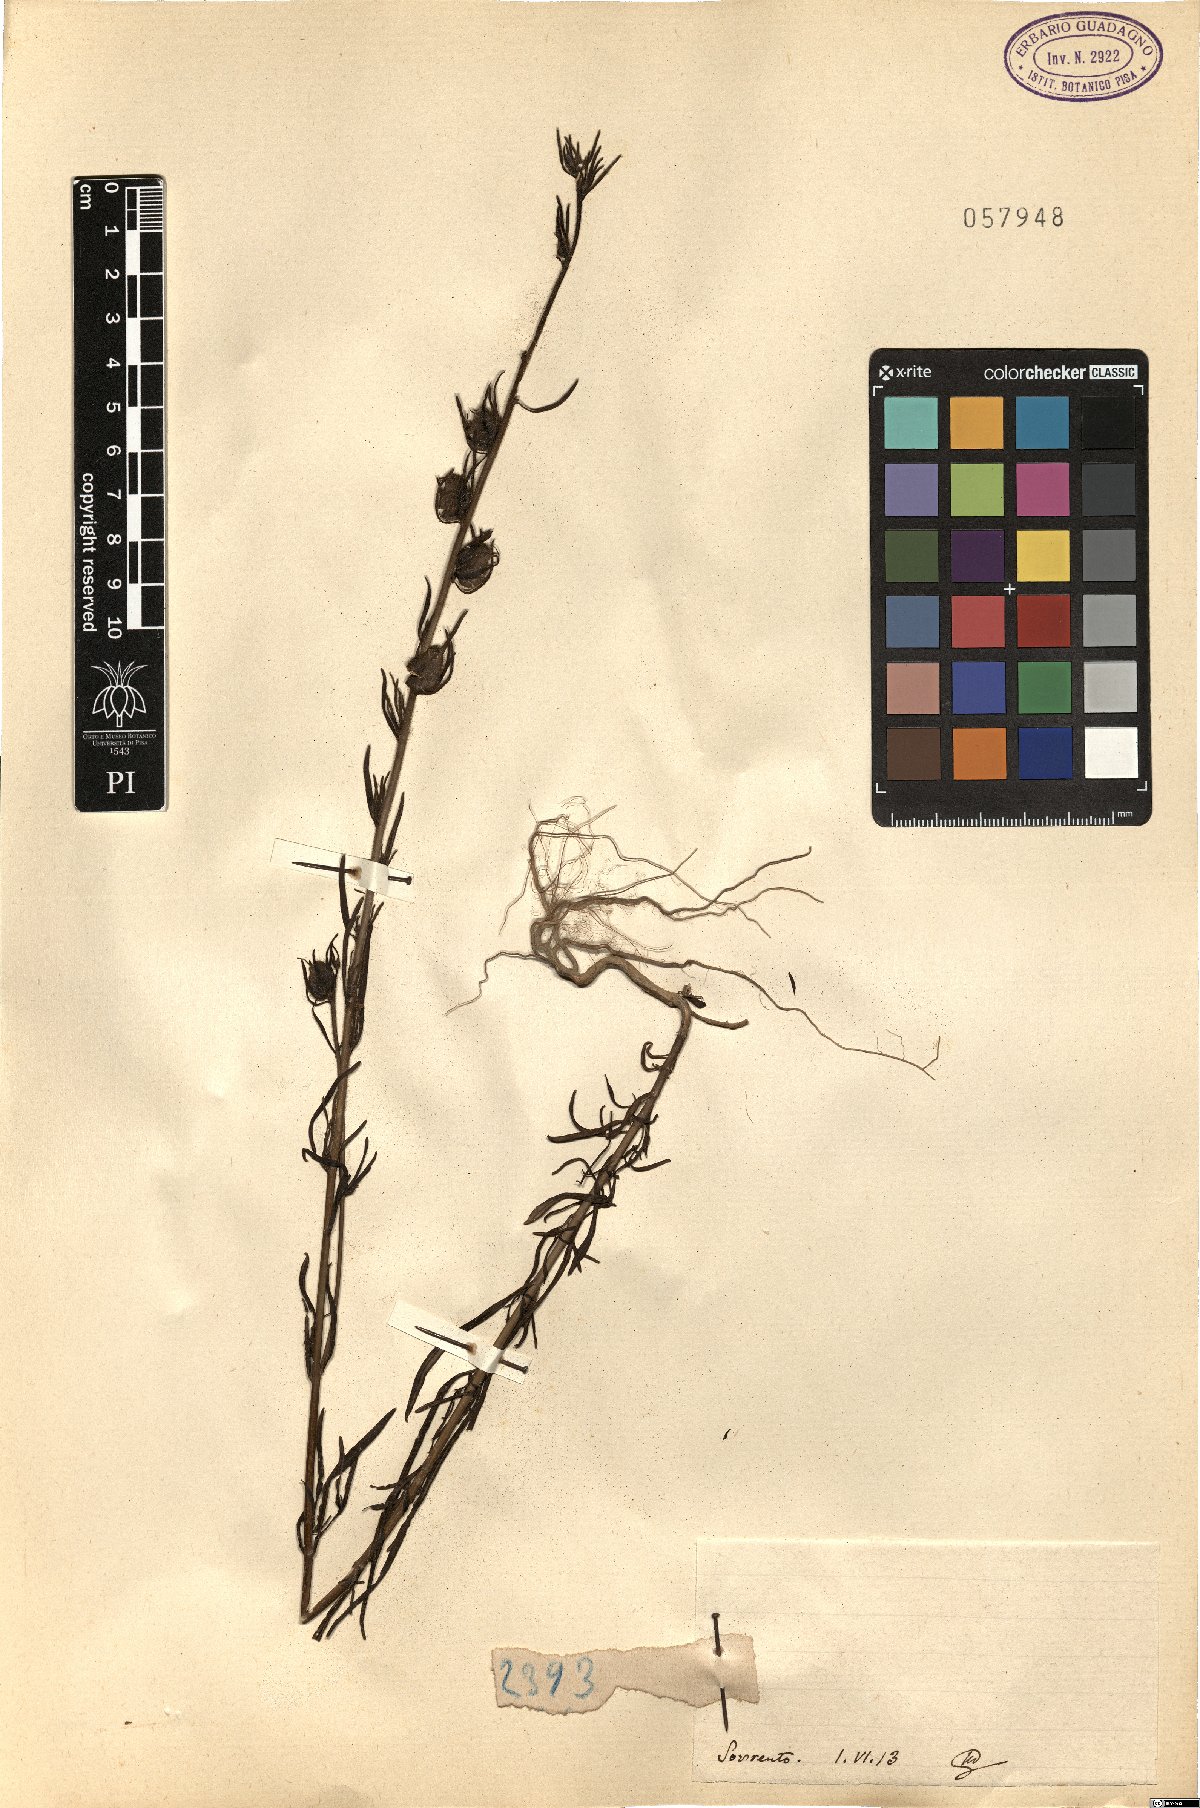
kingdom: Plantae
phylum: Tracheophyta
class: Magnoliopsida
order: Lamiales
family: Plantaginaceae
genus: Antirrhinum
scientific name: Antirrhinum
